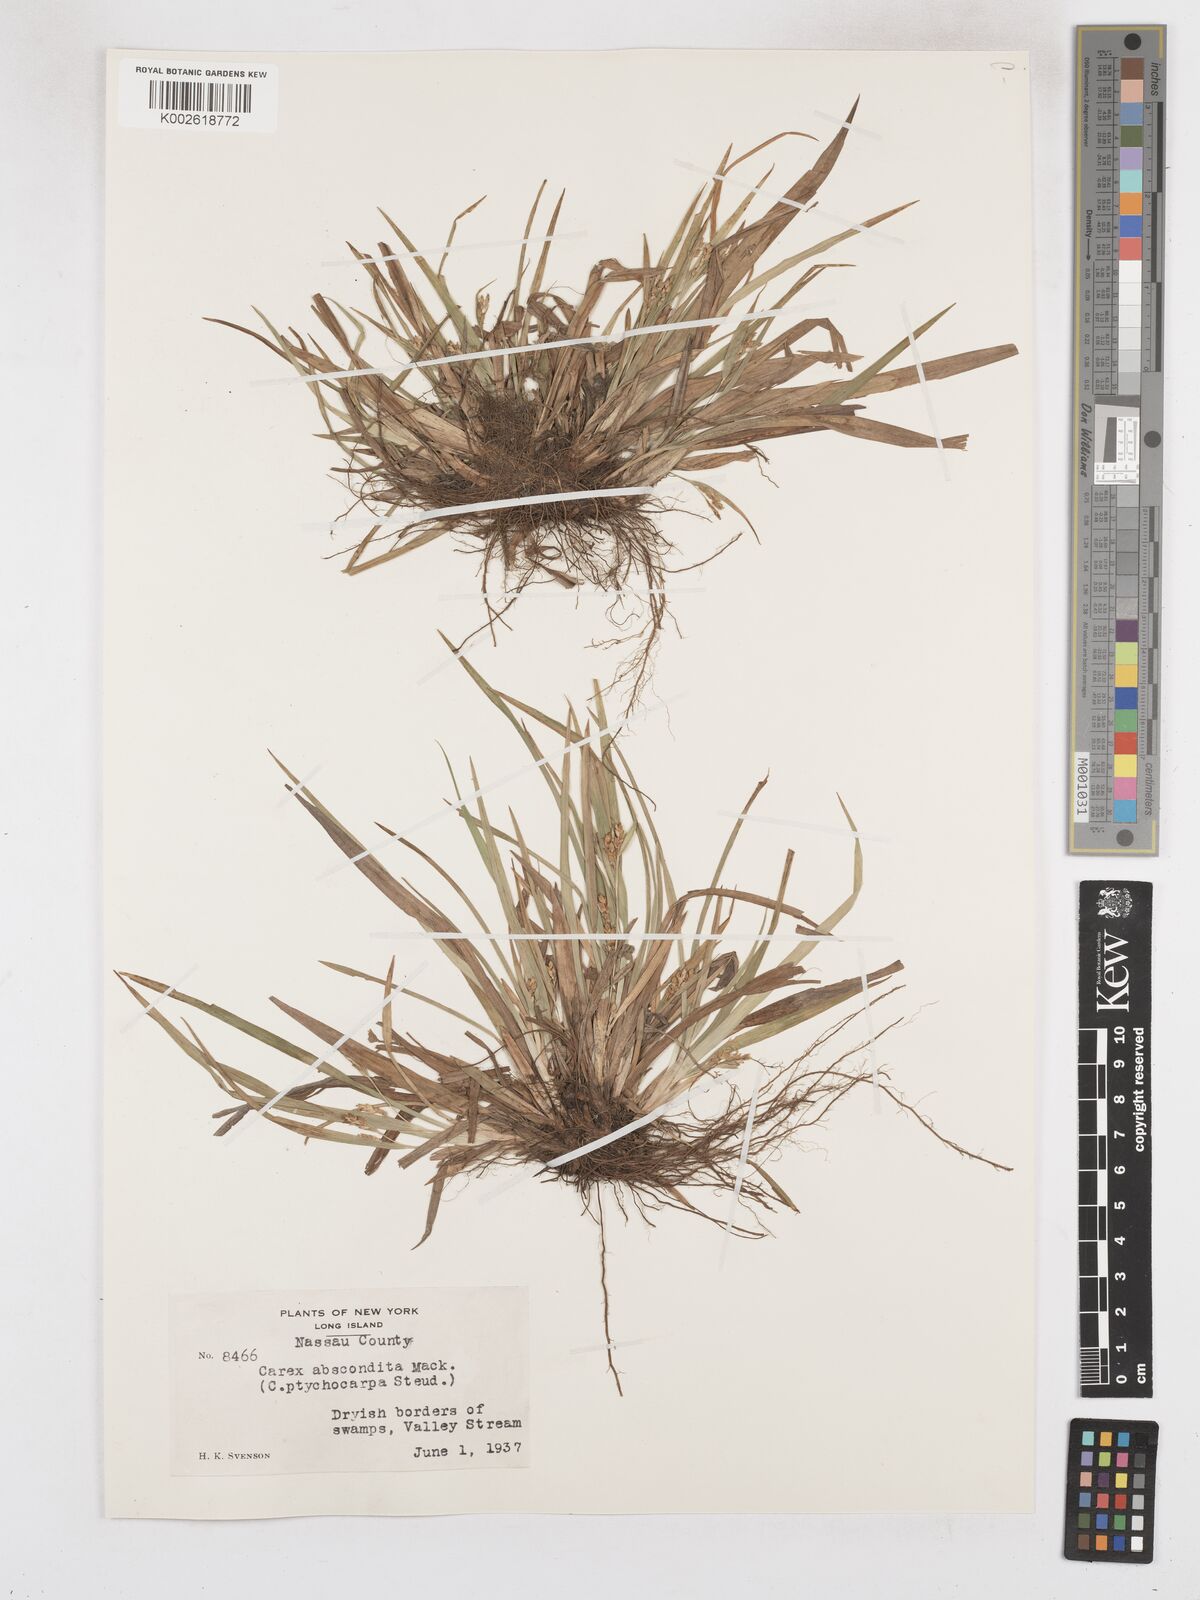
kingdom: Plantae
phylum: Tracheophyta
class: Liliopsida
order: Poales
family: Cyperaceae
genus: Carex
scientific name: Carex abscondita
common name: Thicket sedge
